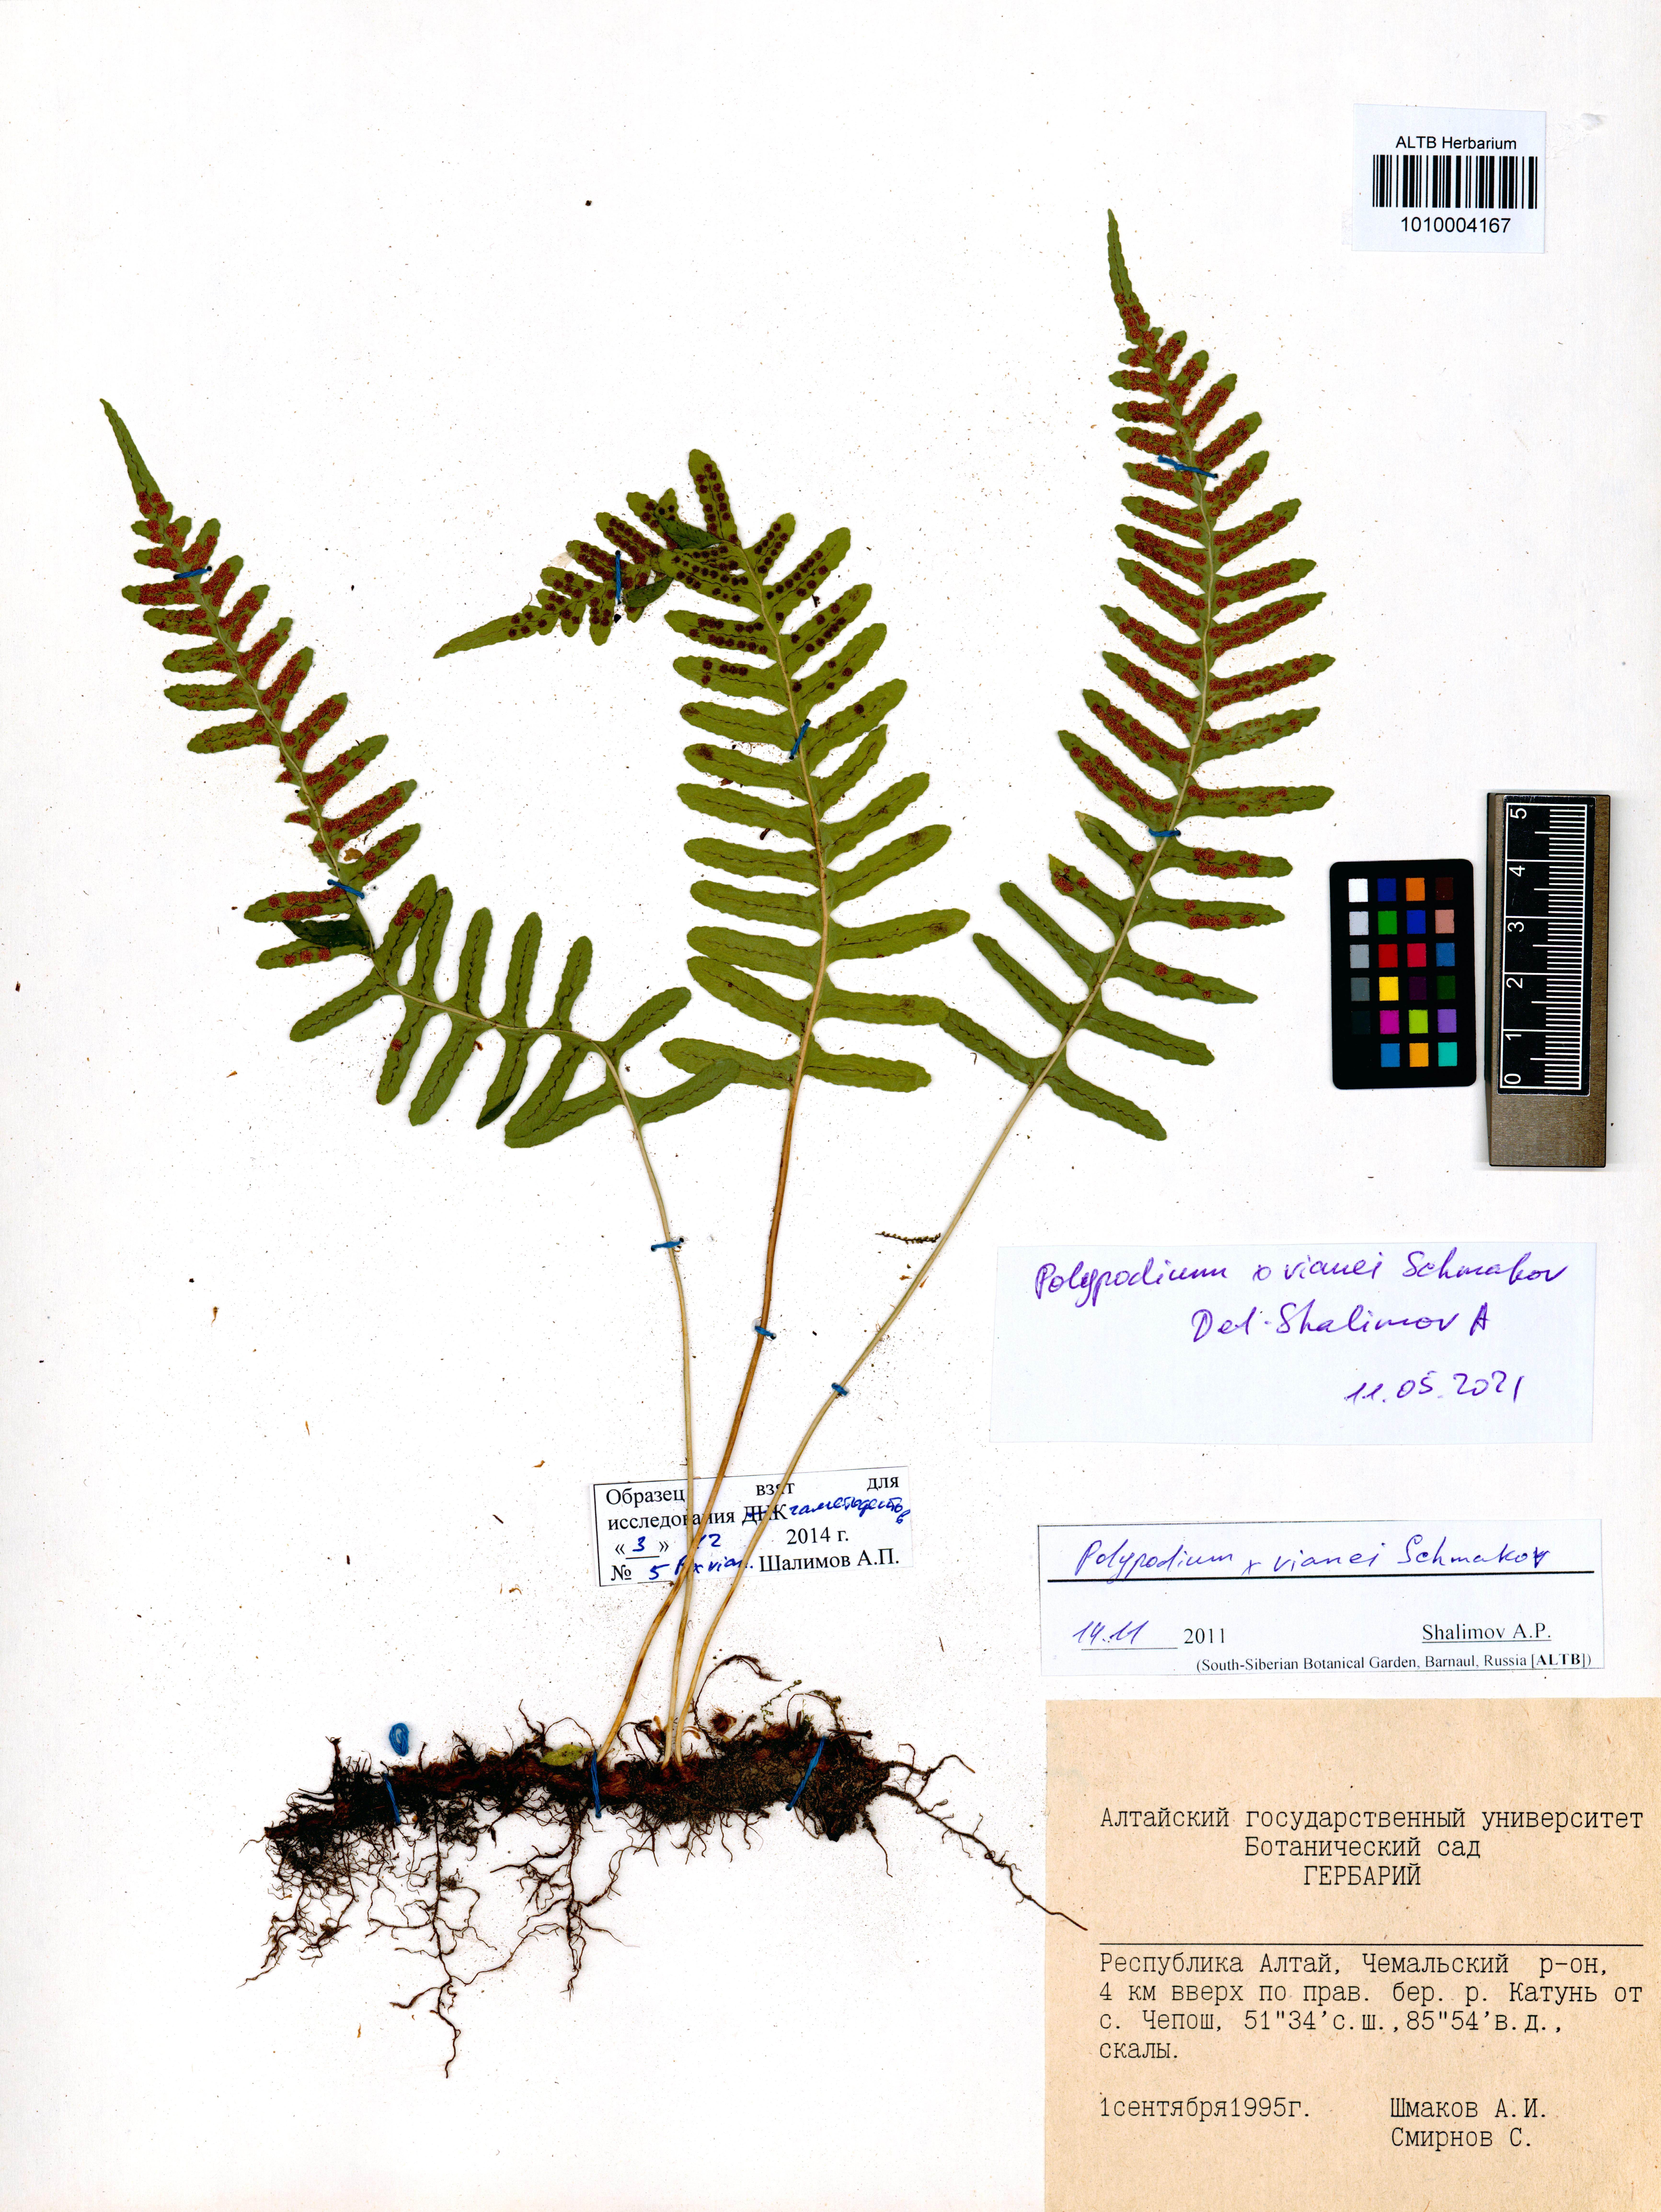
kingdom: Plantae
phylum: Tracheophyta
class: Polypodiopsida
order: Polypodiales
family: Polypodiaceae
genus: Polypodium
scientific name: Polypodium vianei
